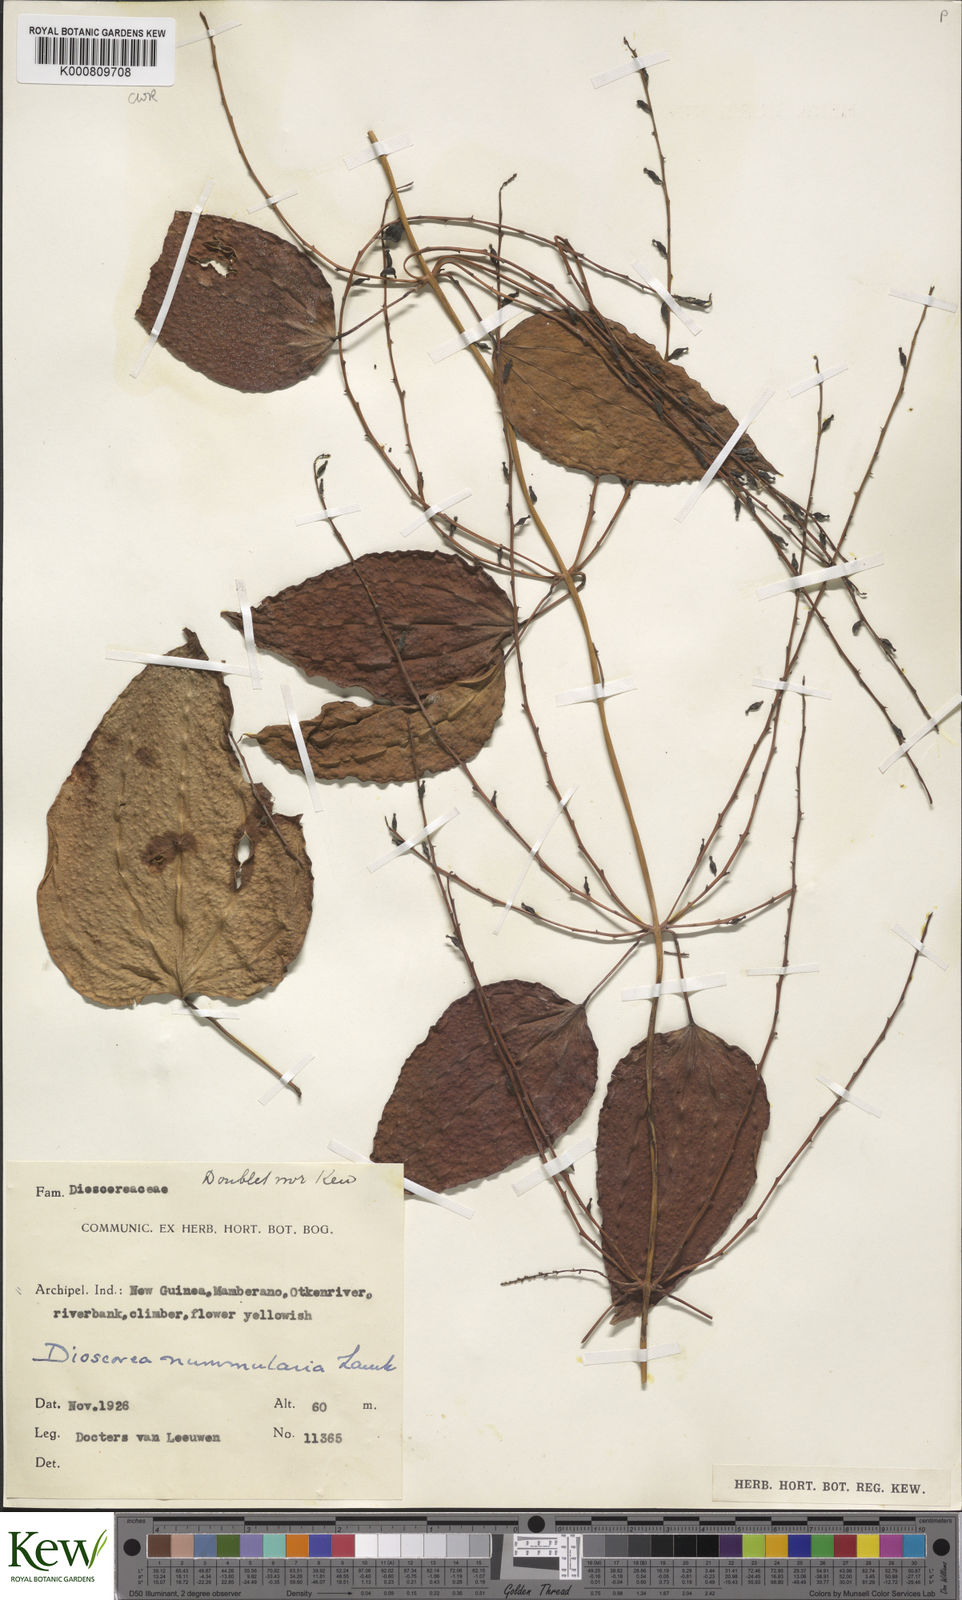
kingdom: Plantae
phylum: Tracheophyta
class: Liliopsida
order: Dioscoreales
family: Dioscoreaceae
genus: Dioscorea
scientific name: Dioscorea nummularia
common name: Pacific yam
